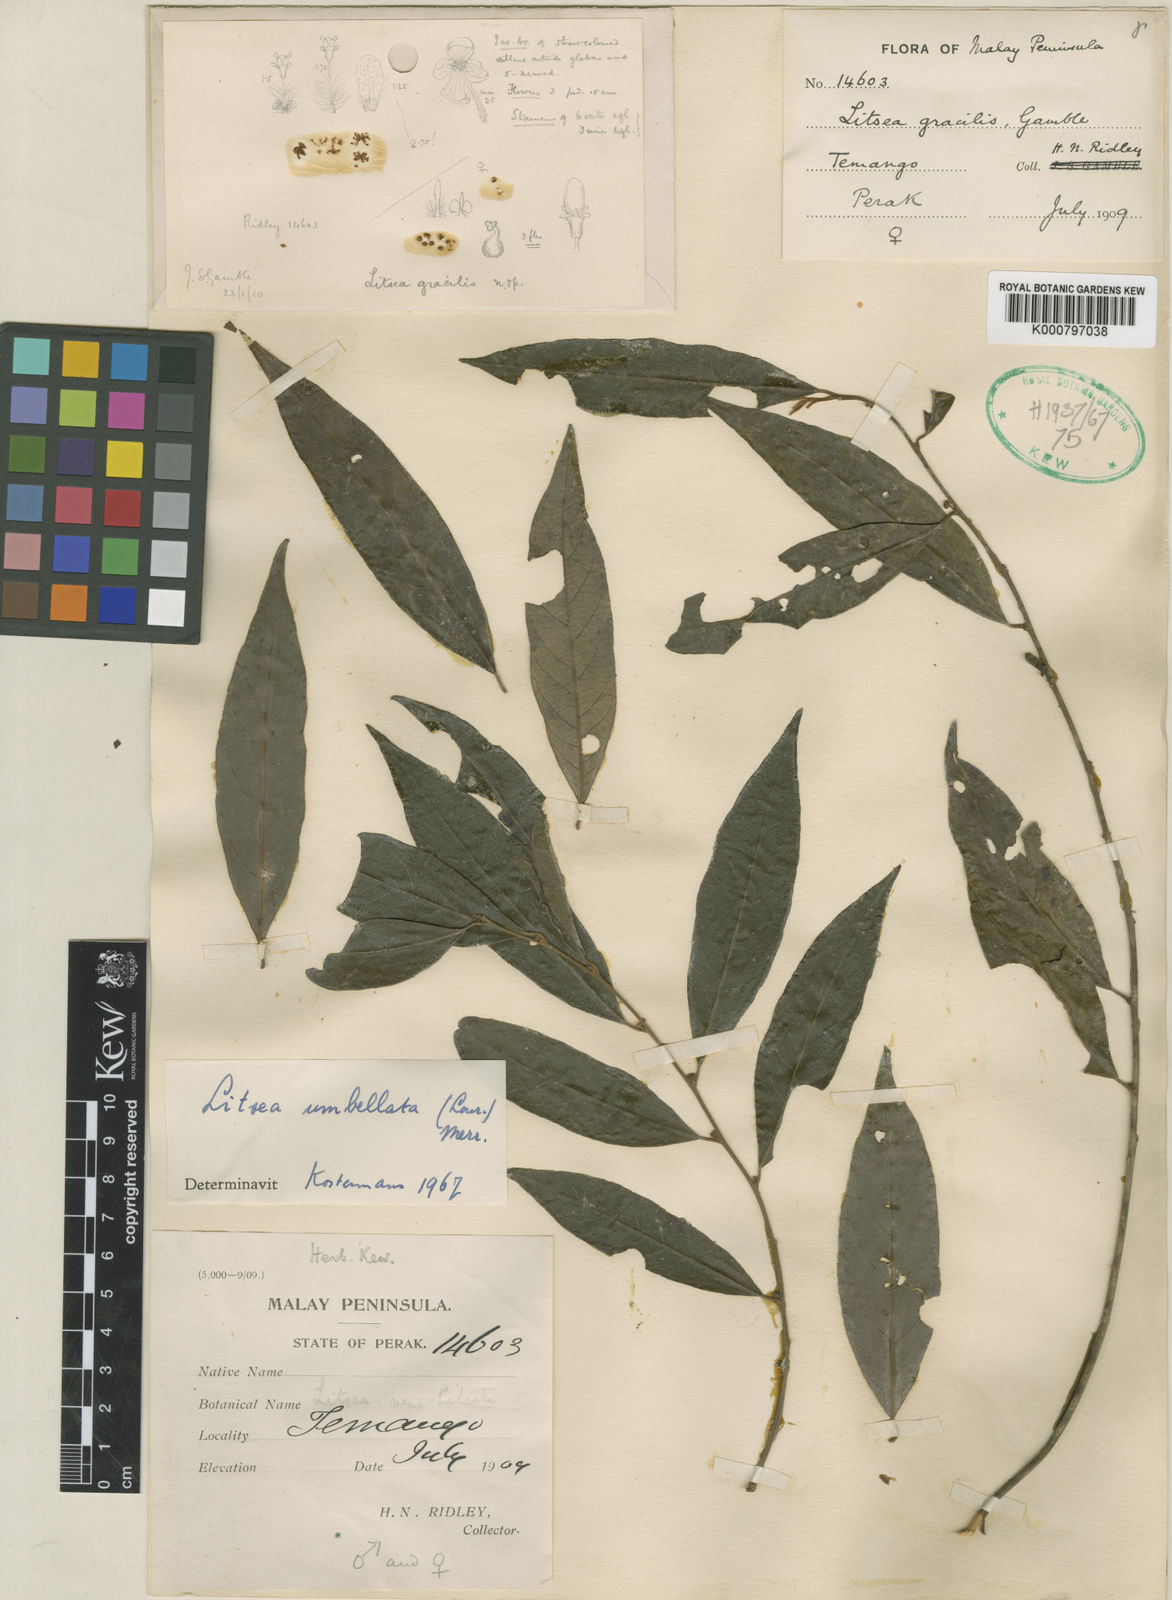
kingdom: Plantae
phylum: Tracheophyta
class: Magnoliopsida
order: Laurales
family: Lauraceae
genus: Litsea
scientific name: Litsea umbellata
